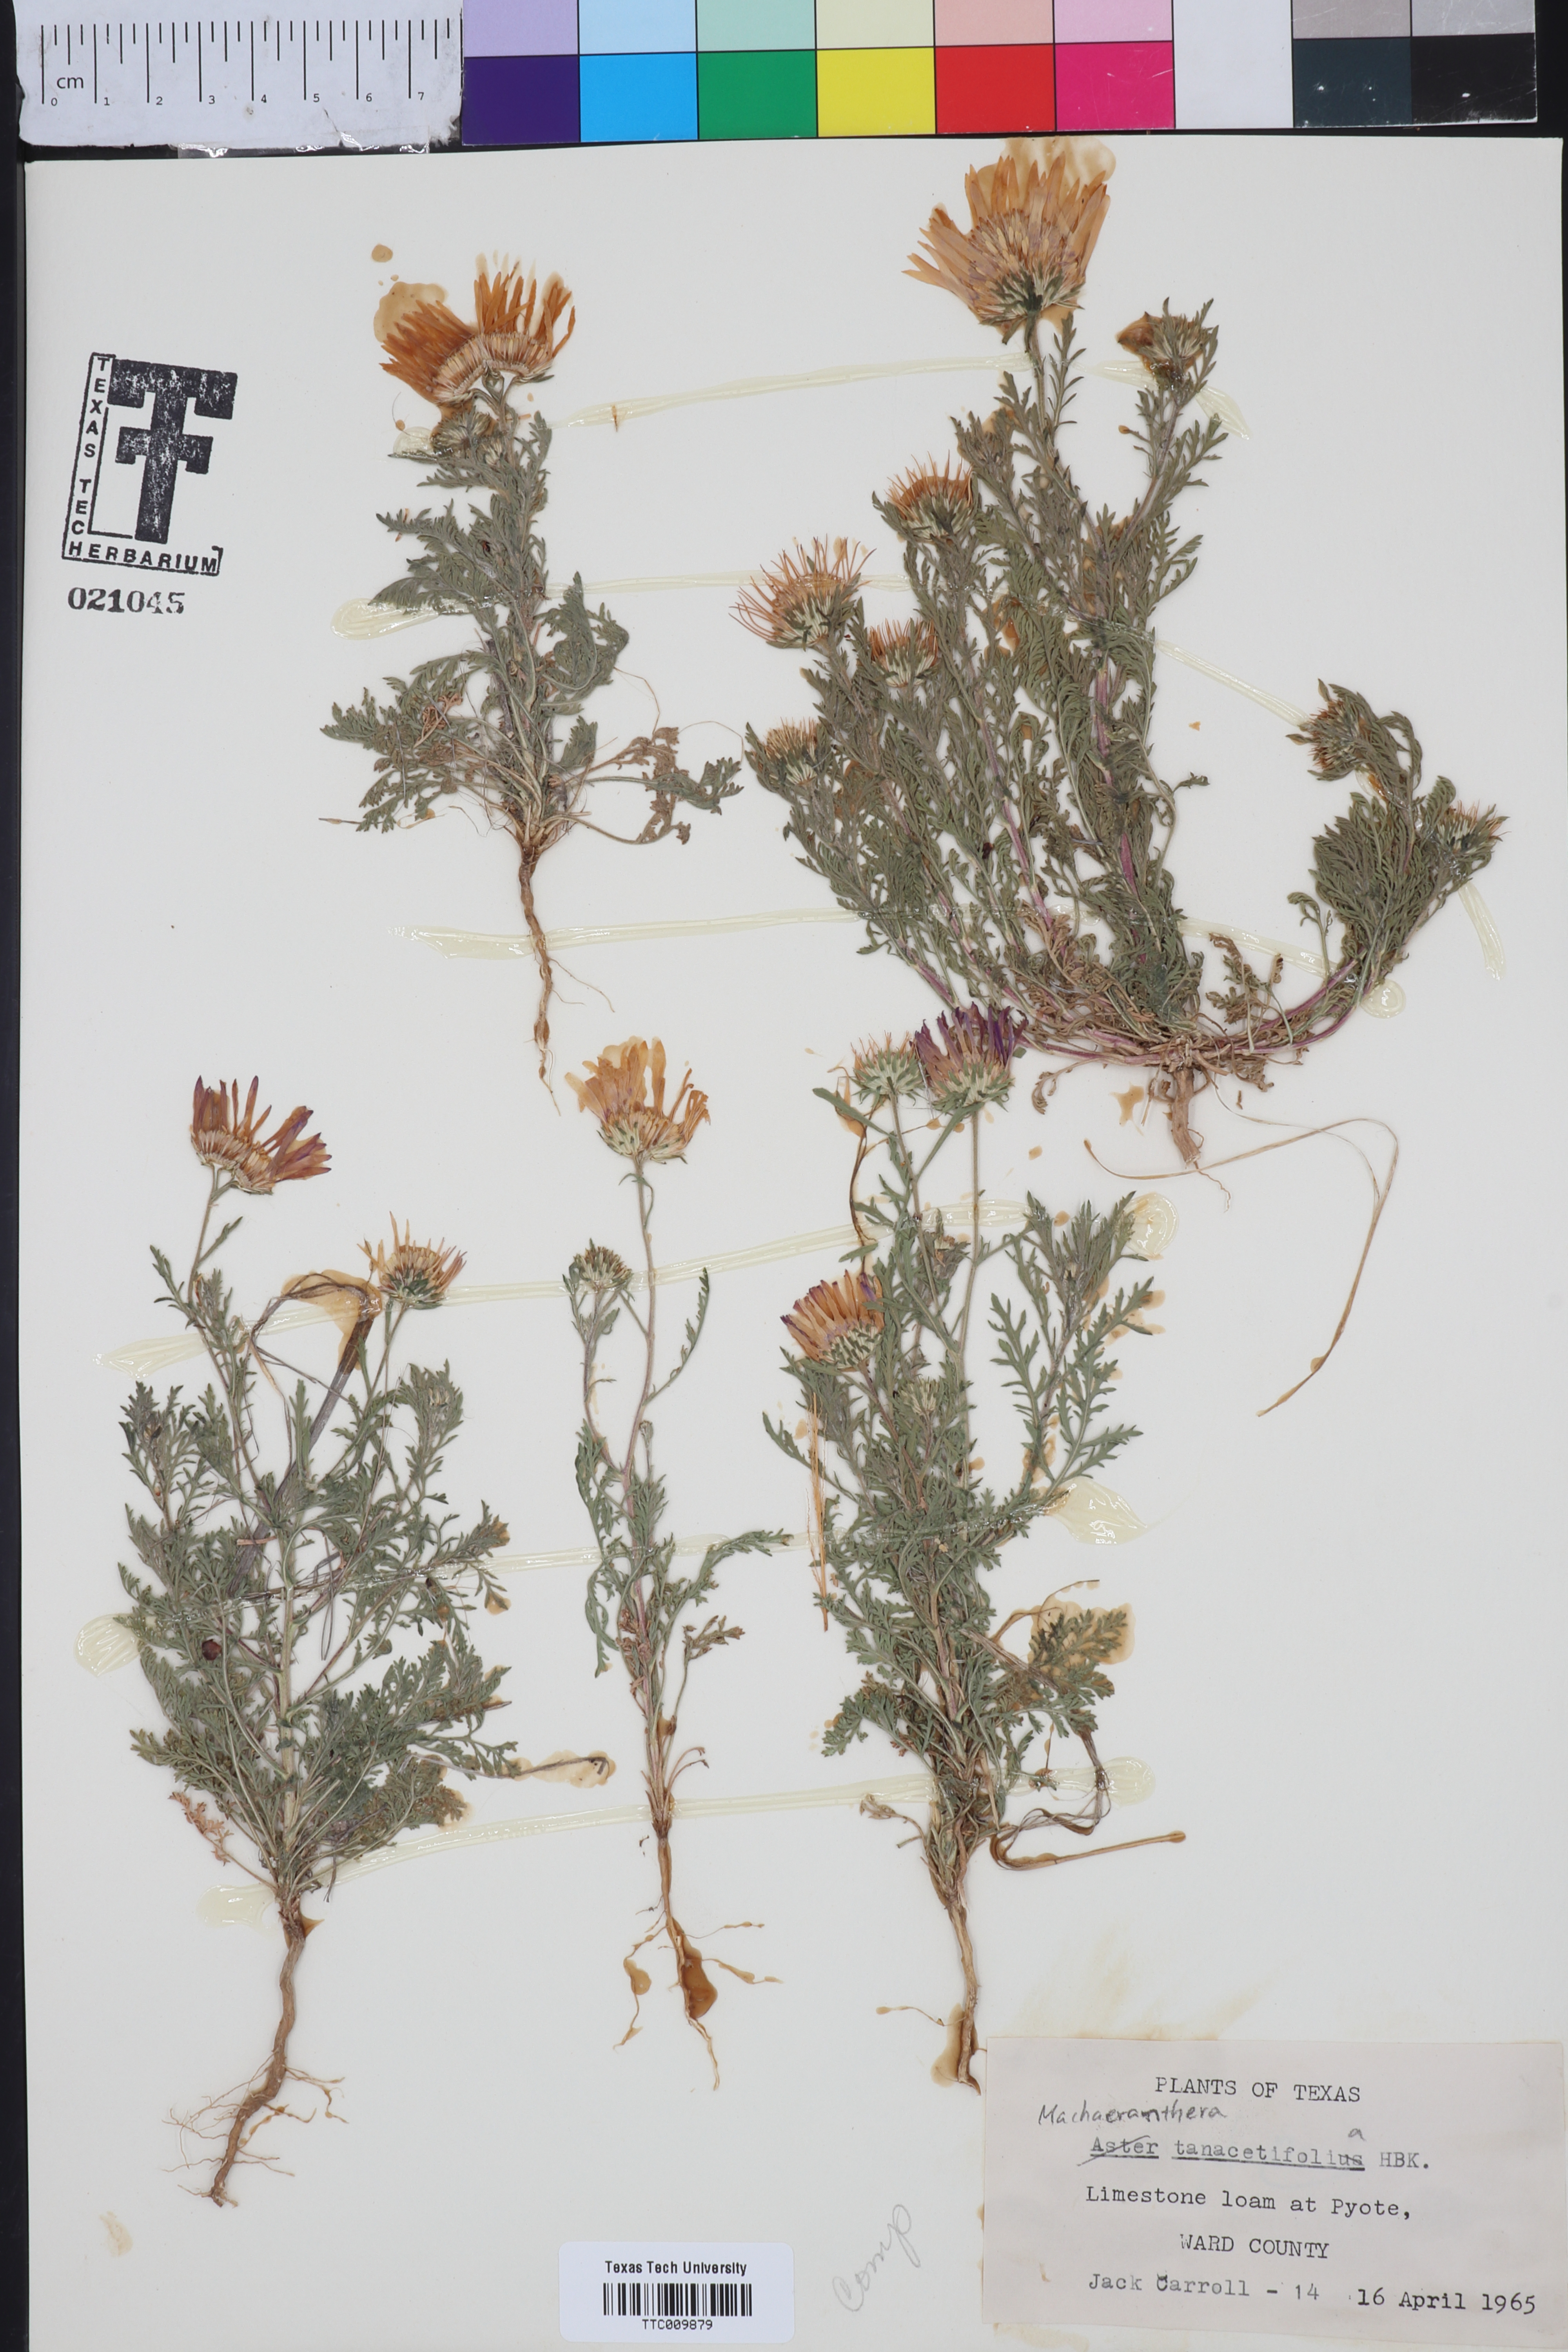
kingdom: Plantae
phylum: Tracheophyta
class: Magnoliopsida
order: Asterales
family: Asteraceae
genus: Machaeranthera
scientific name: Machaeranthera tanacetifolia
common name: Tansy-aster
